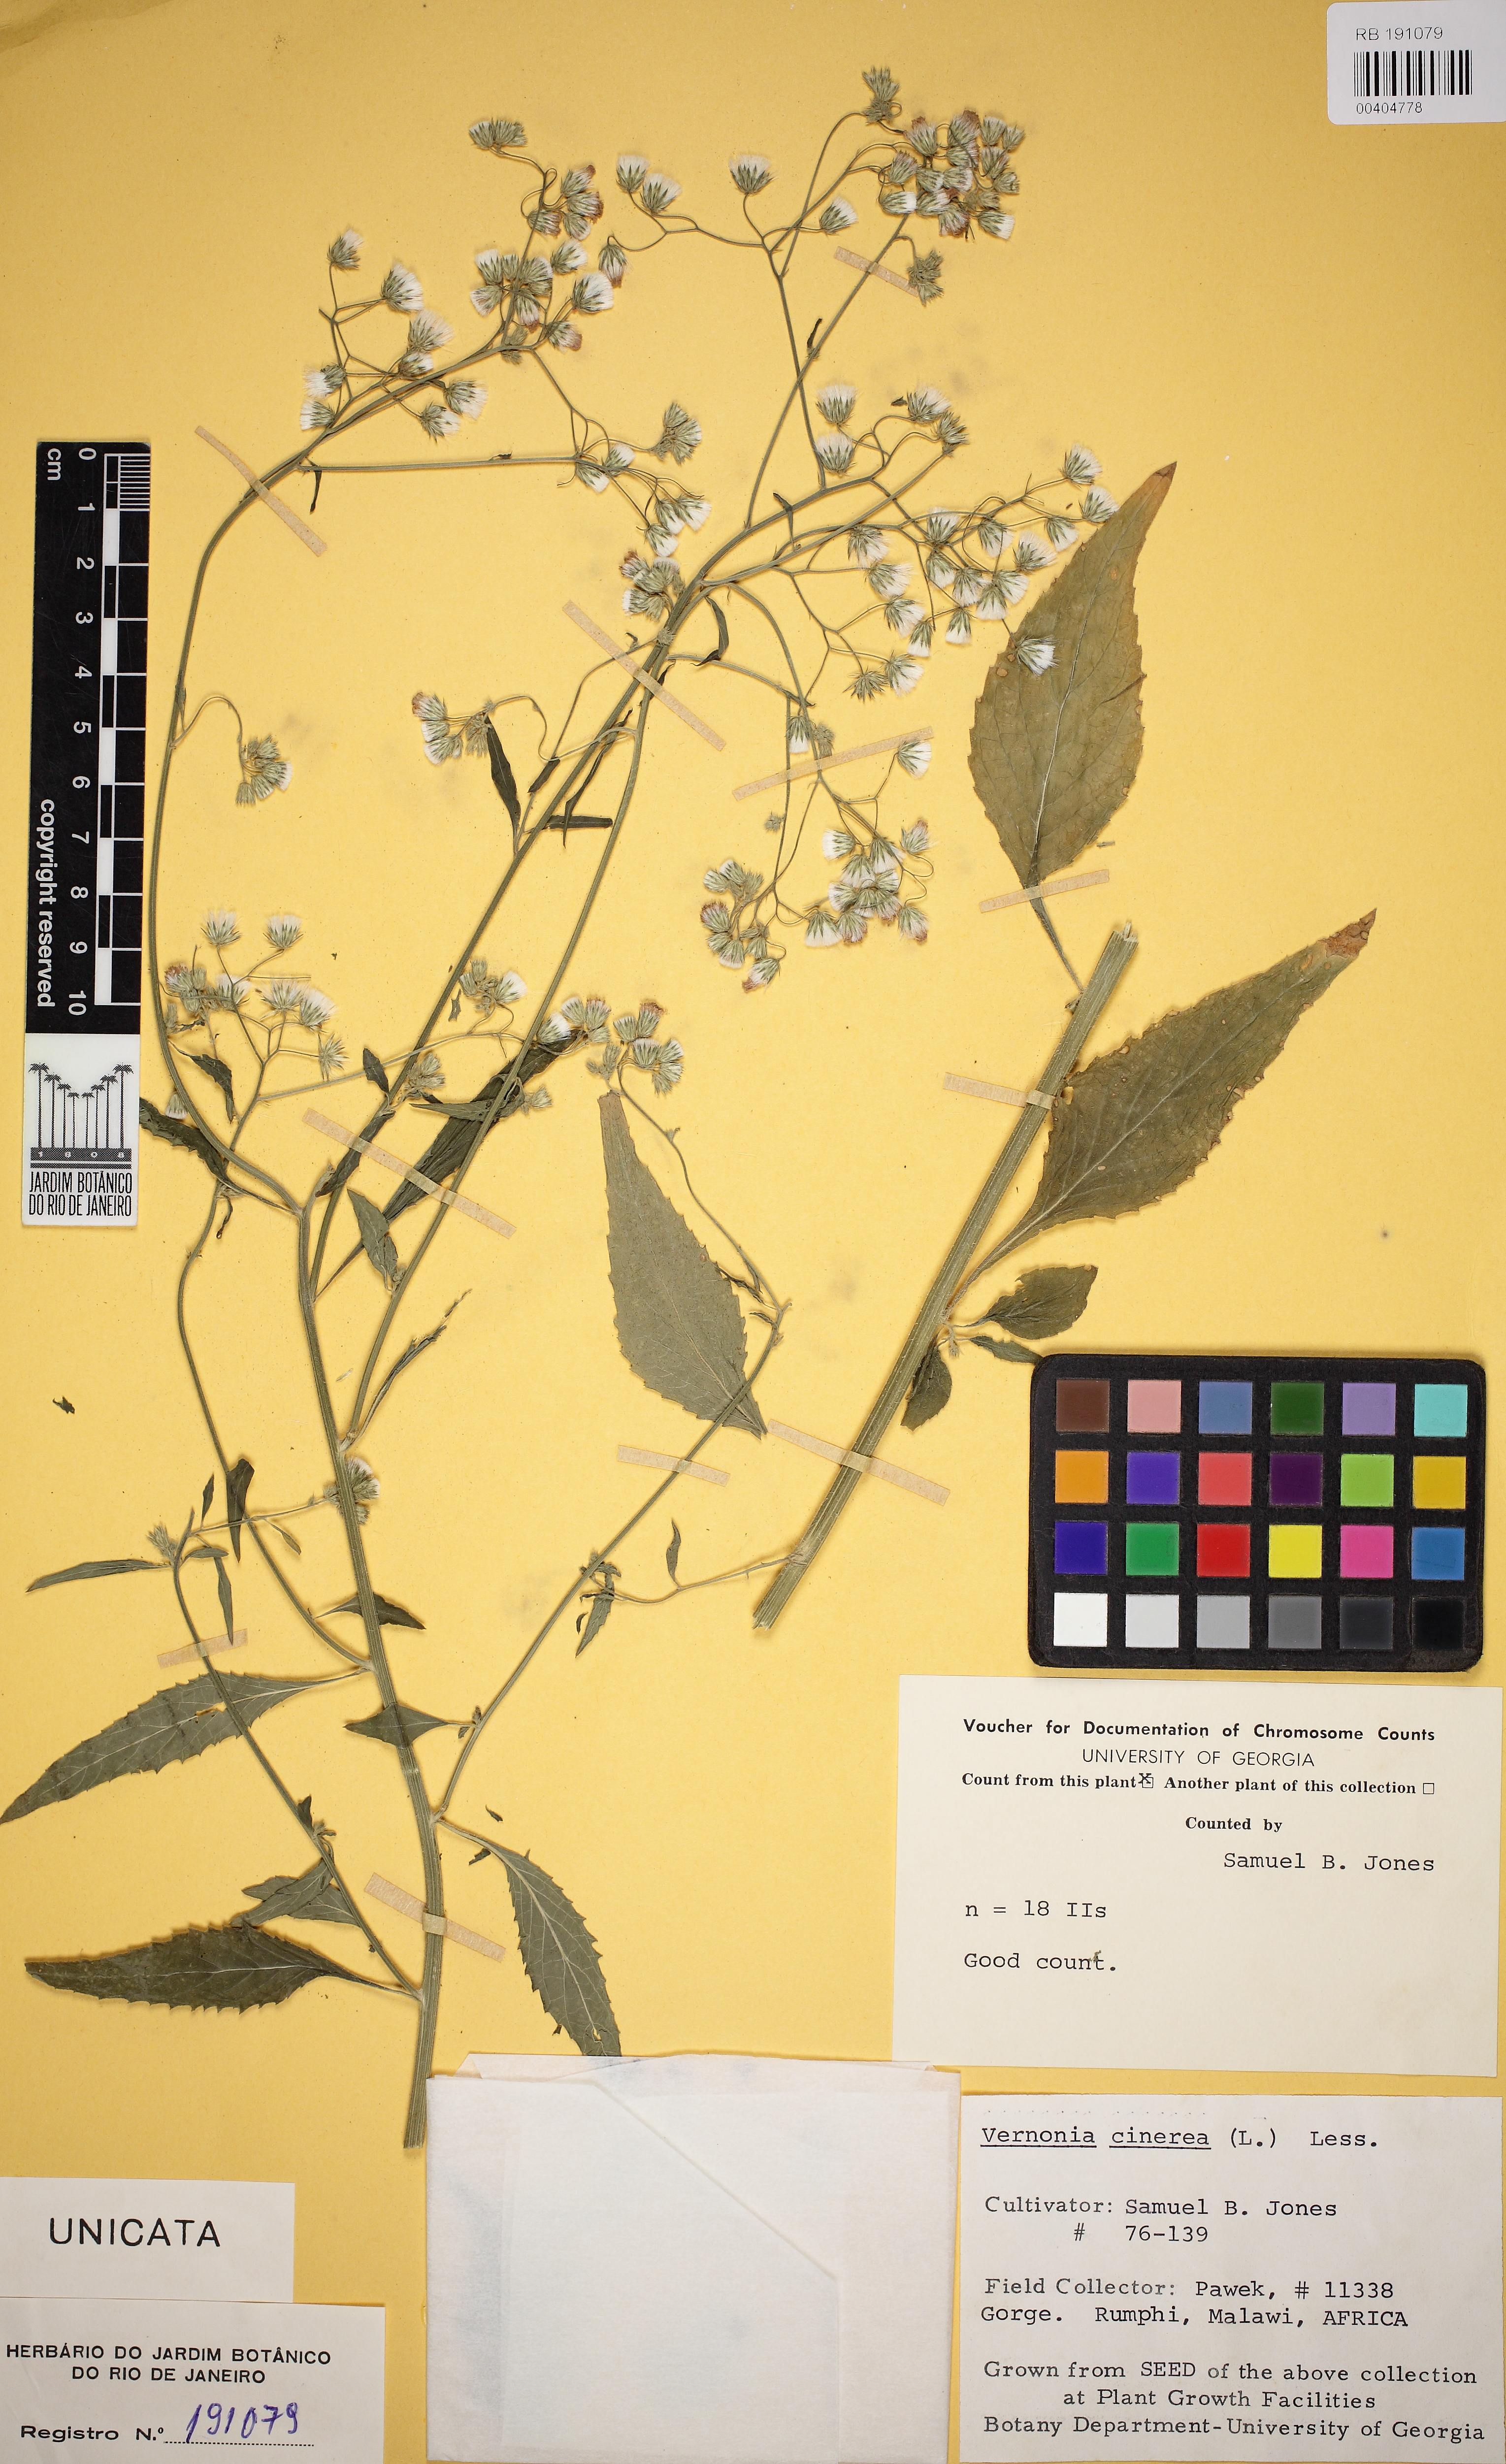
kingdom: Plantae
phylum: Tracheophyta
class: Magnoliopsida
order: Asterales
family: Asteraceae
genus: Cyanthillium
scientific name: Cyanthillium cinereum
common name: Little ironweed
